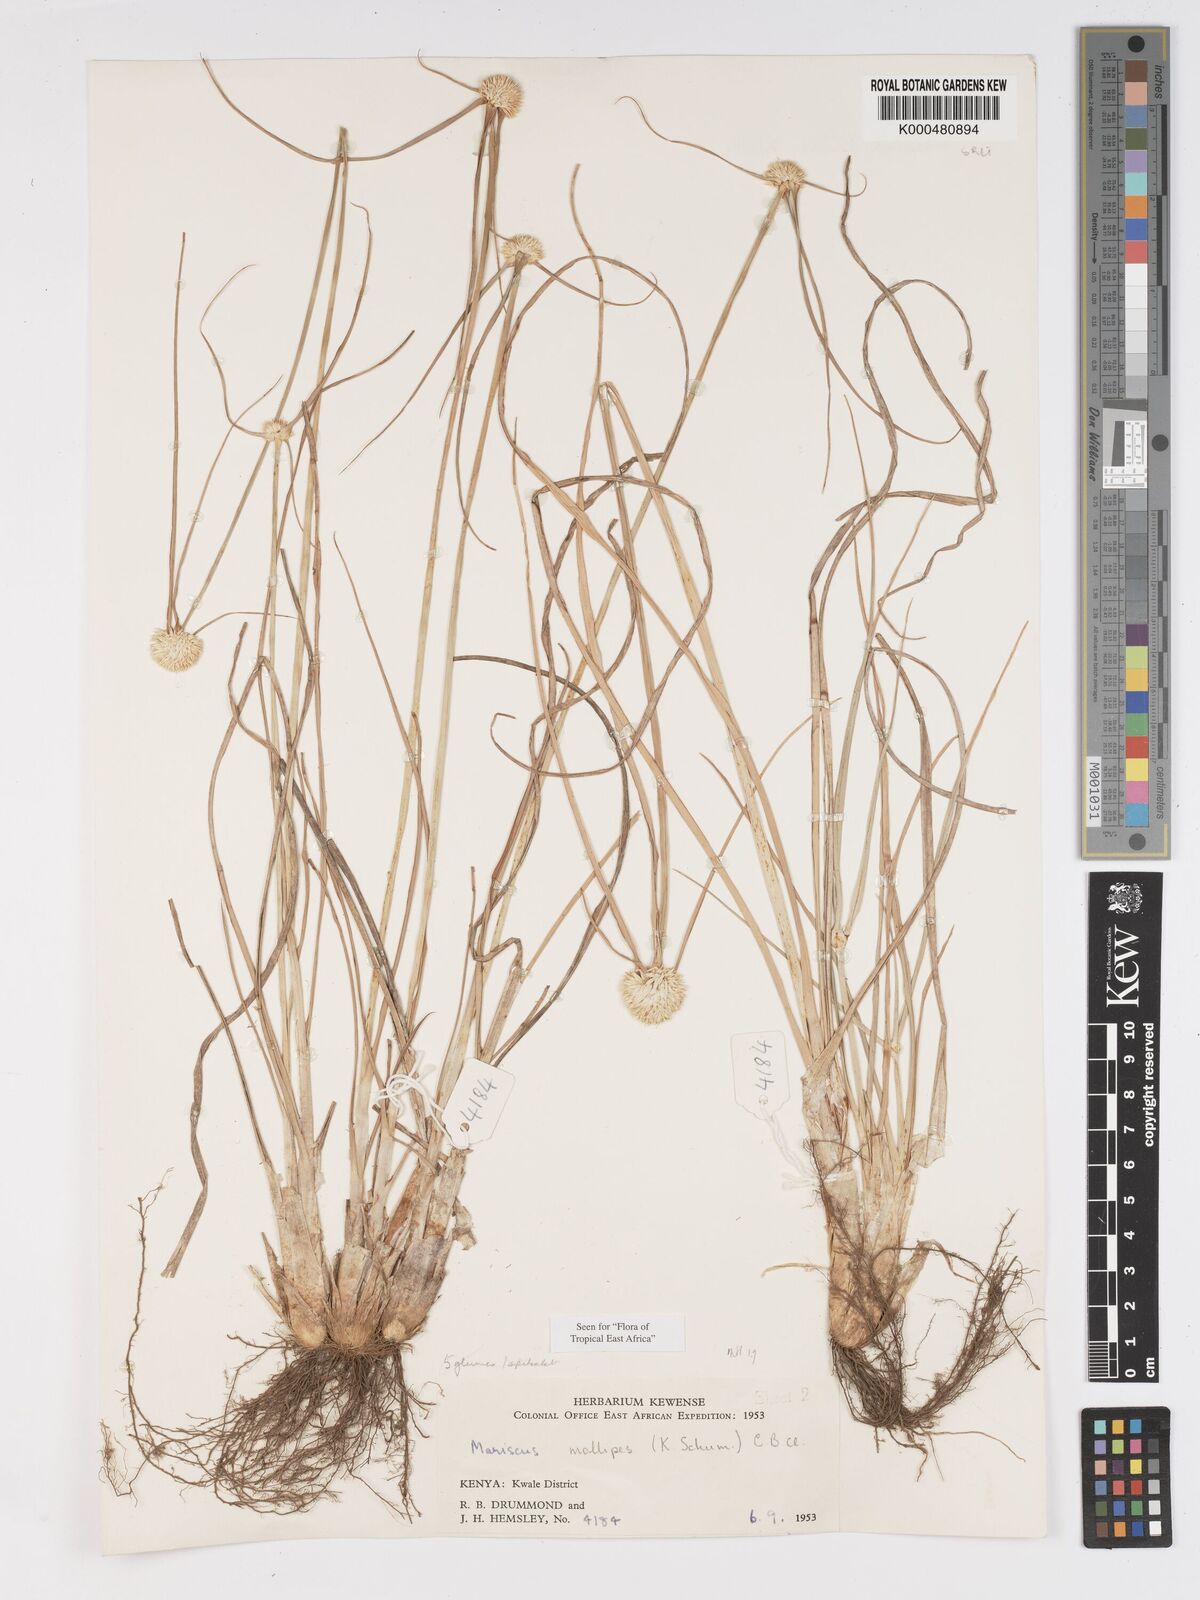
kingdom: Plantae
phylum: Tracheophyta
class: Liliopsida
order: Poales
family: Cyperaceae
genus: Cyperus
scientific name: Cyperus mollipes
